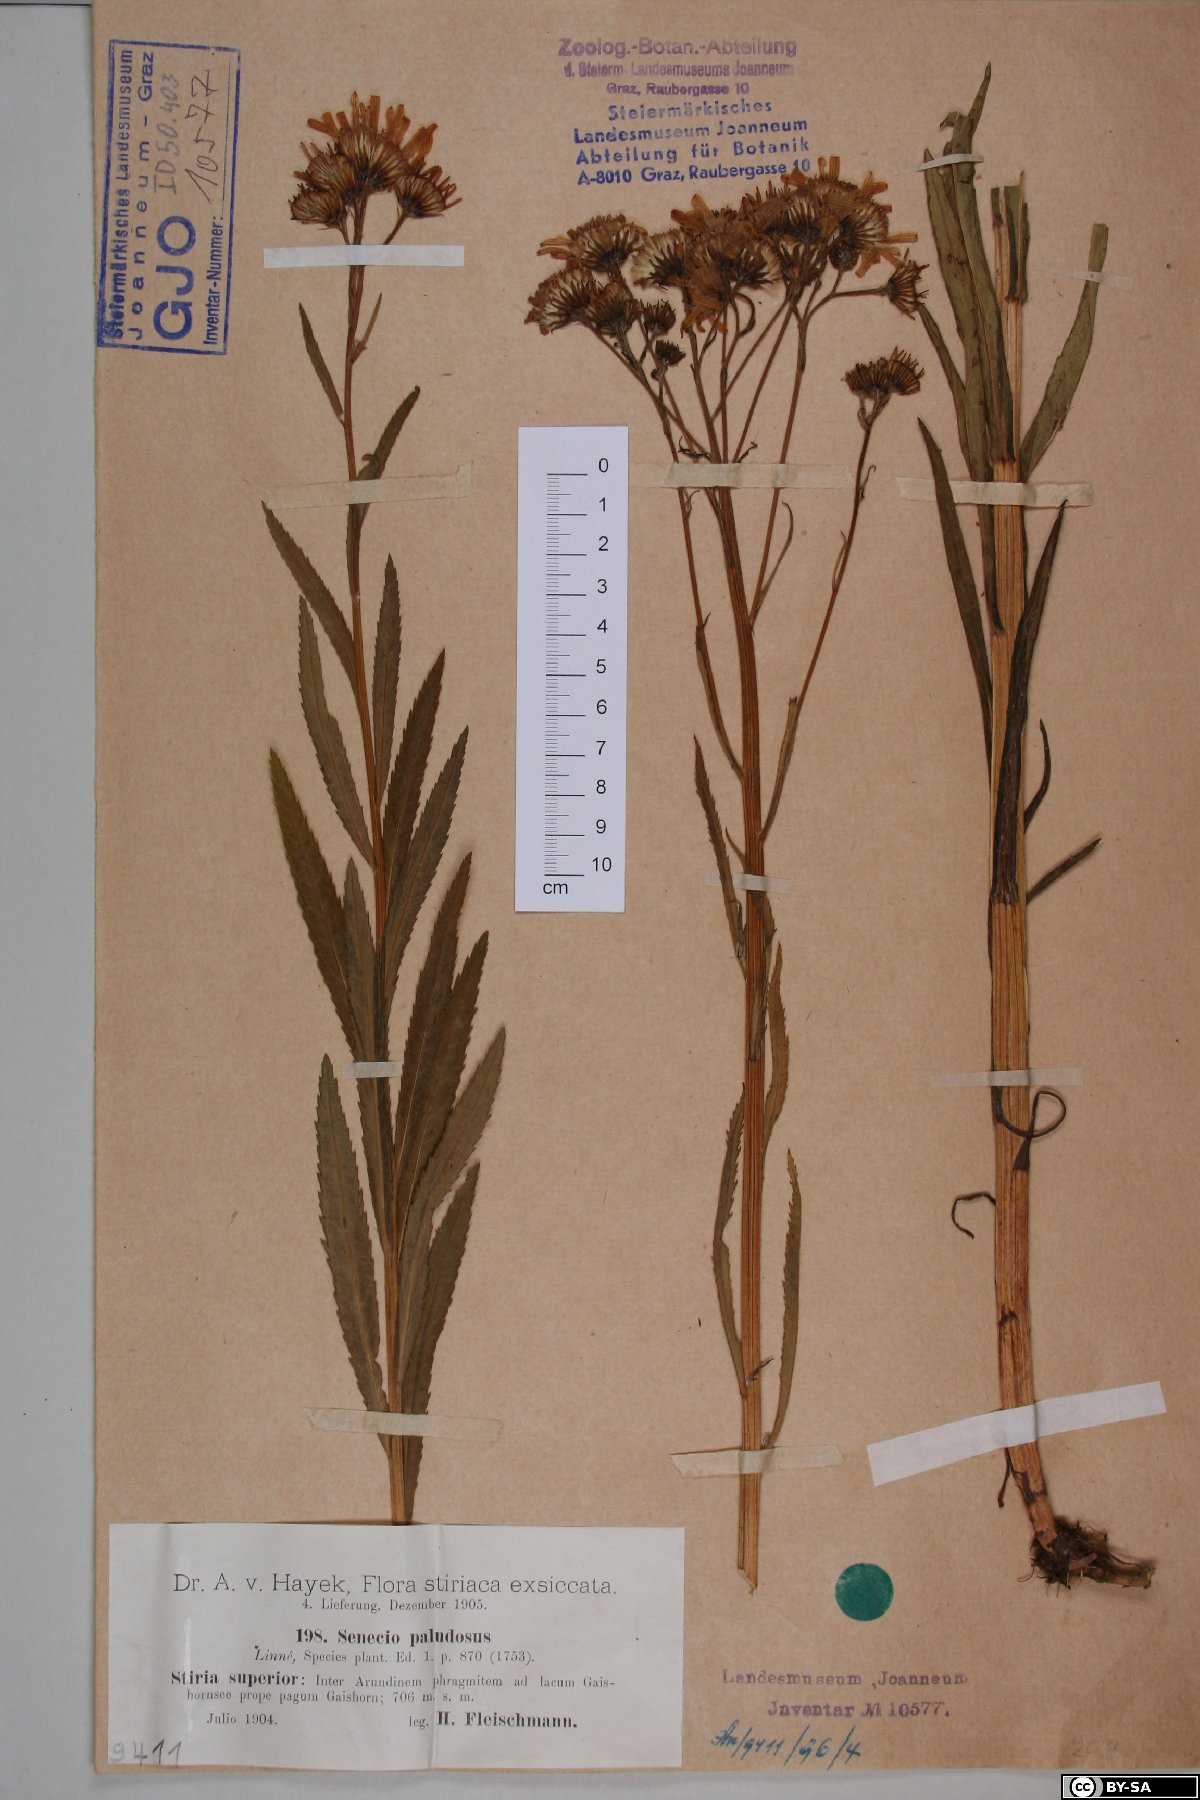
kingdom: Plantae
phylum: Tracheophyta
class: Magnoliopsida
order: Asterales
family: Asteraceae
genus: Jacobaea
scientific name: Jacobaea paludosa
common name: Fen ragwort
